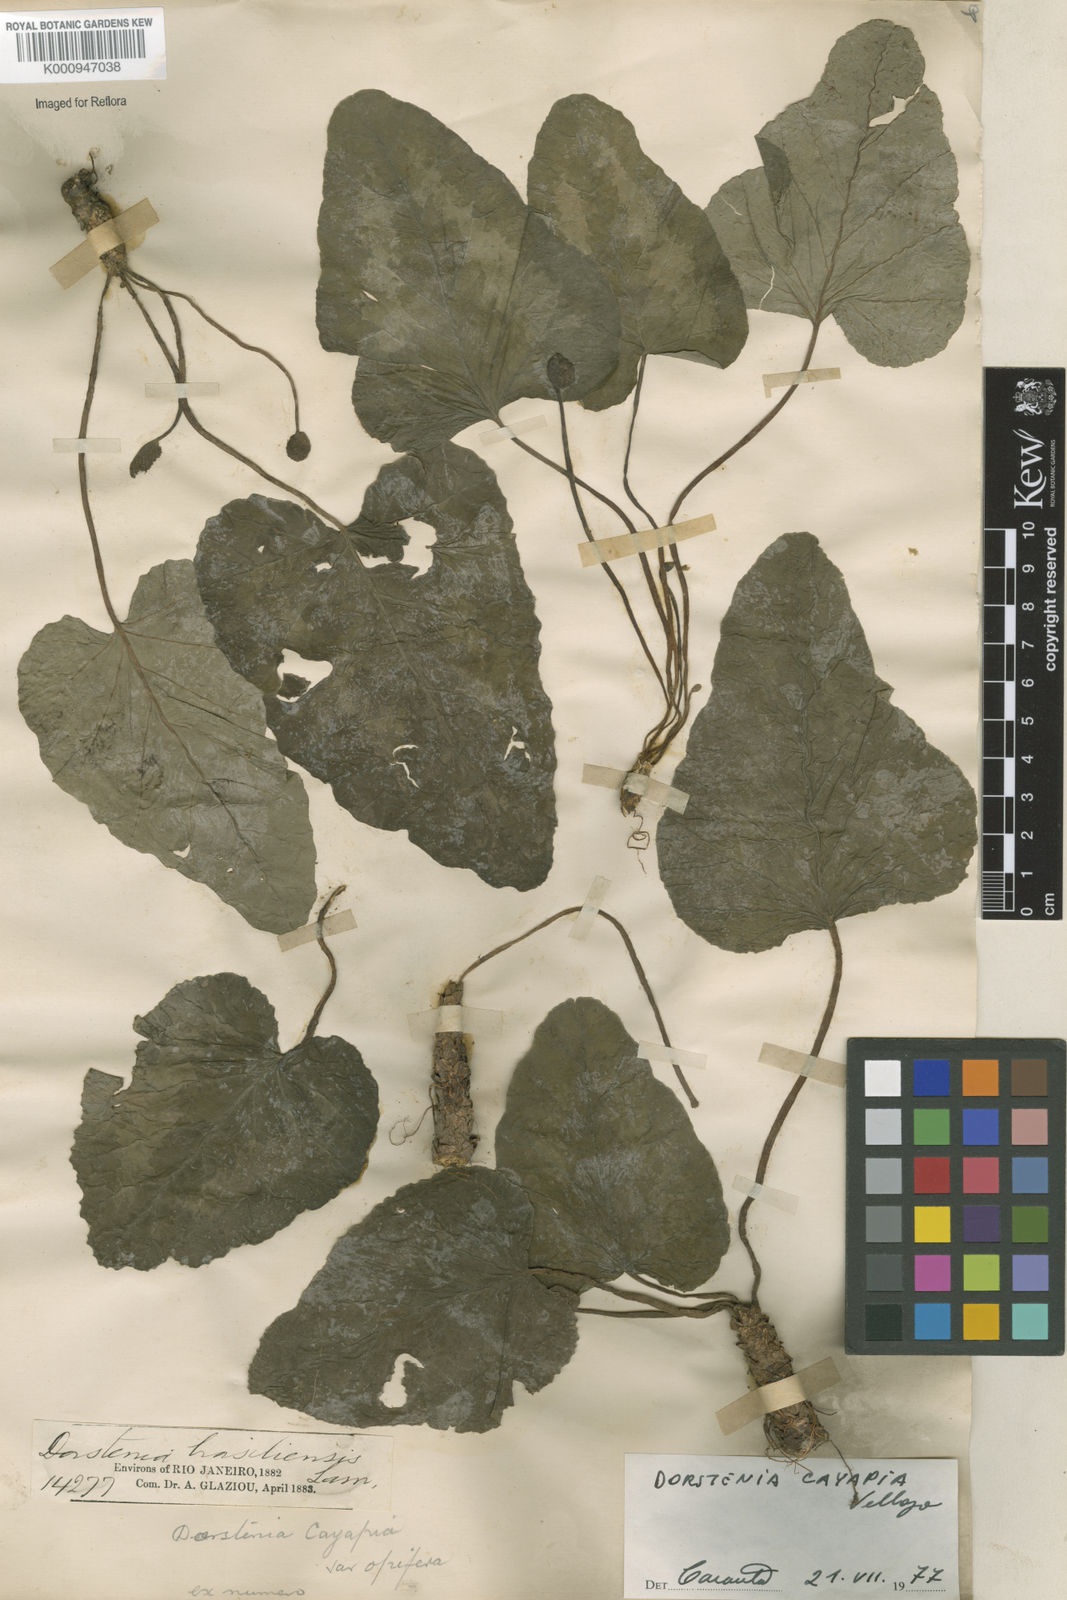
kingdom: Plantae
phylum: Tracheophyta
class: Magnoliopsida
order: Rosales
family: Moraceae
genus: Dorstenia
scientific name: Dorstenia cayapia
